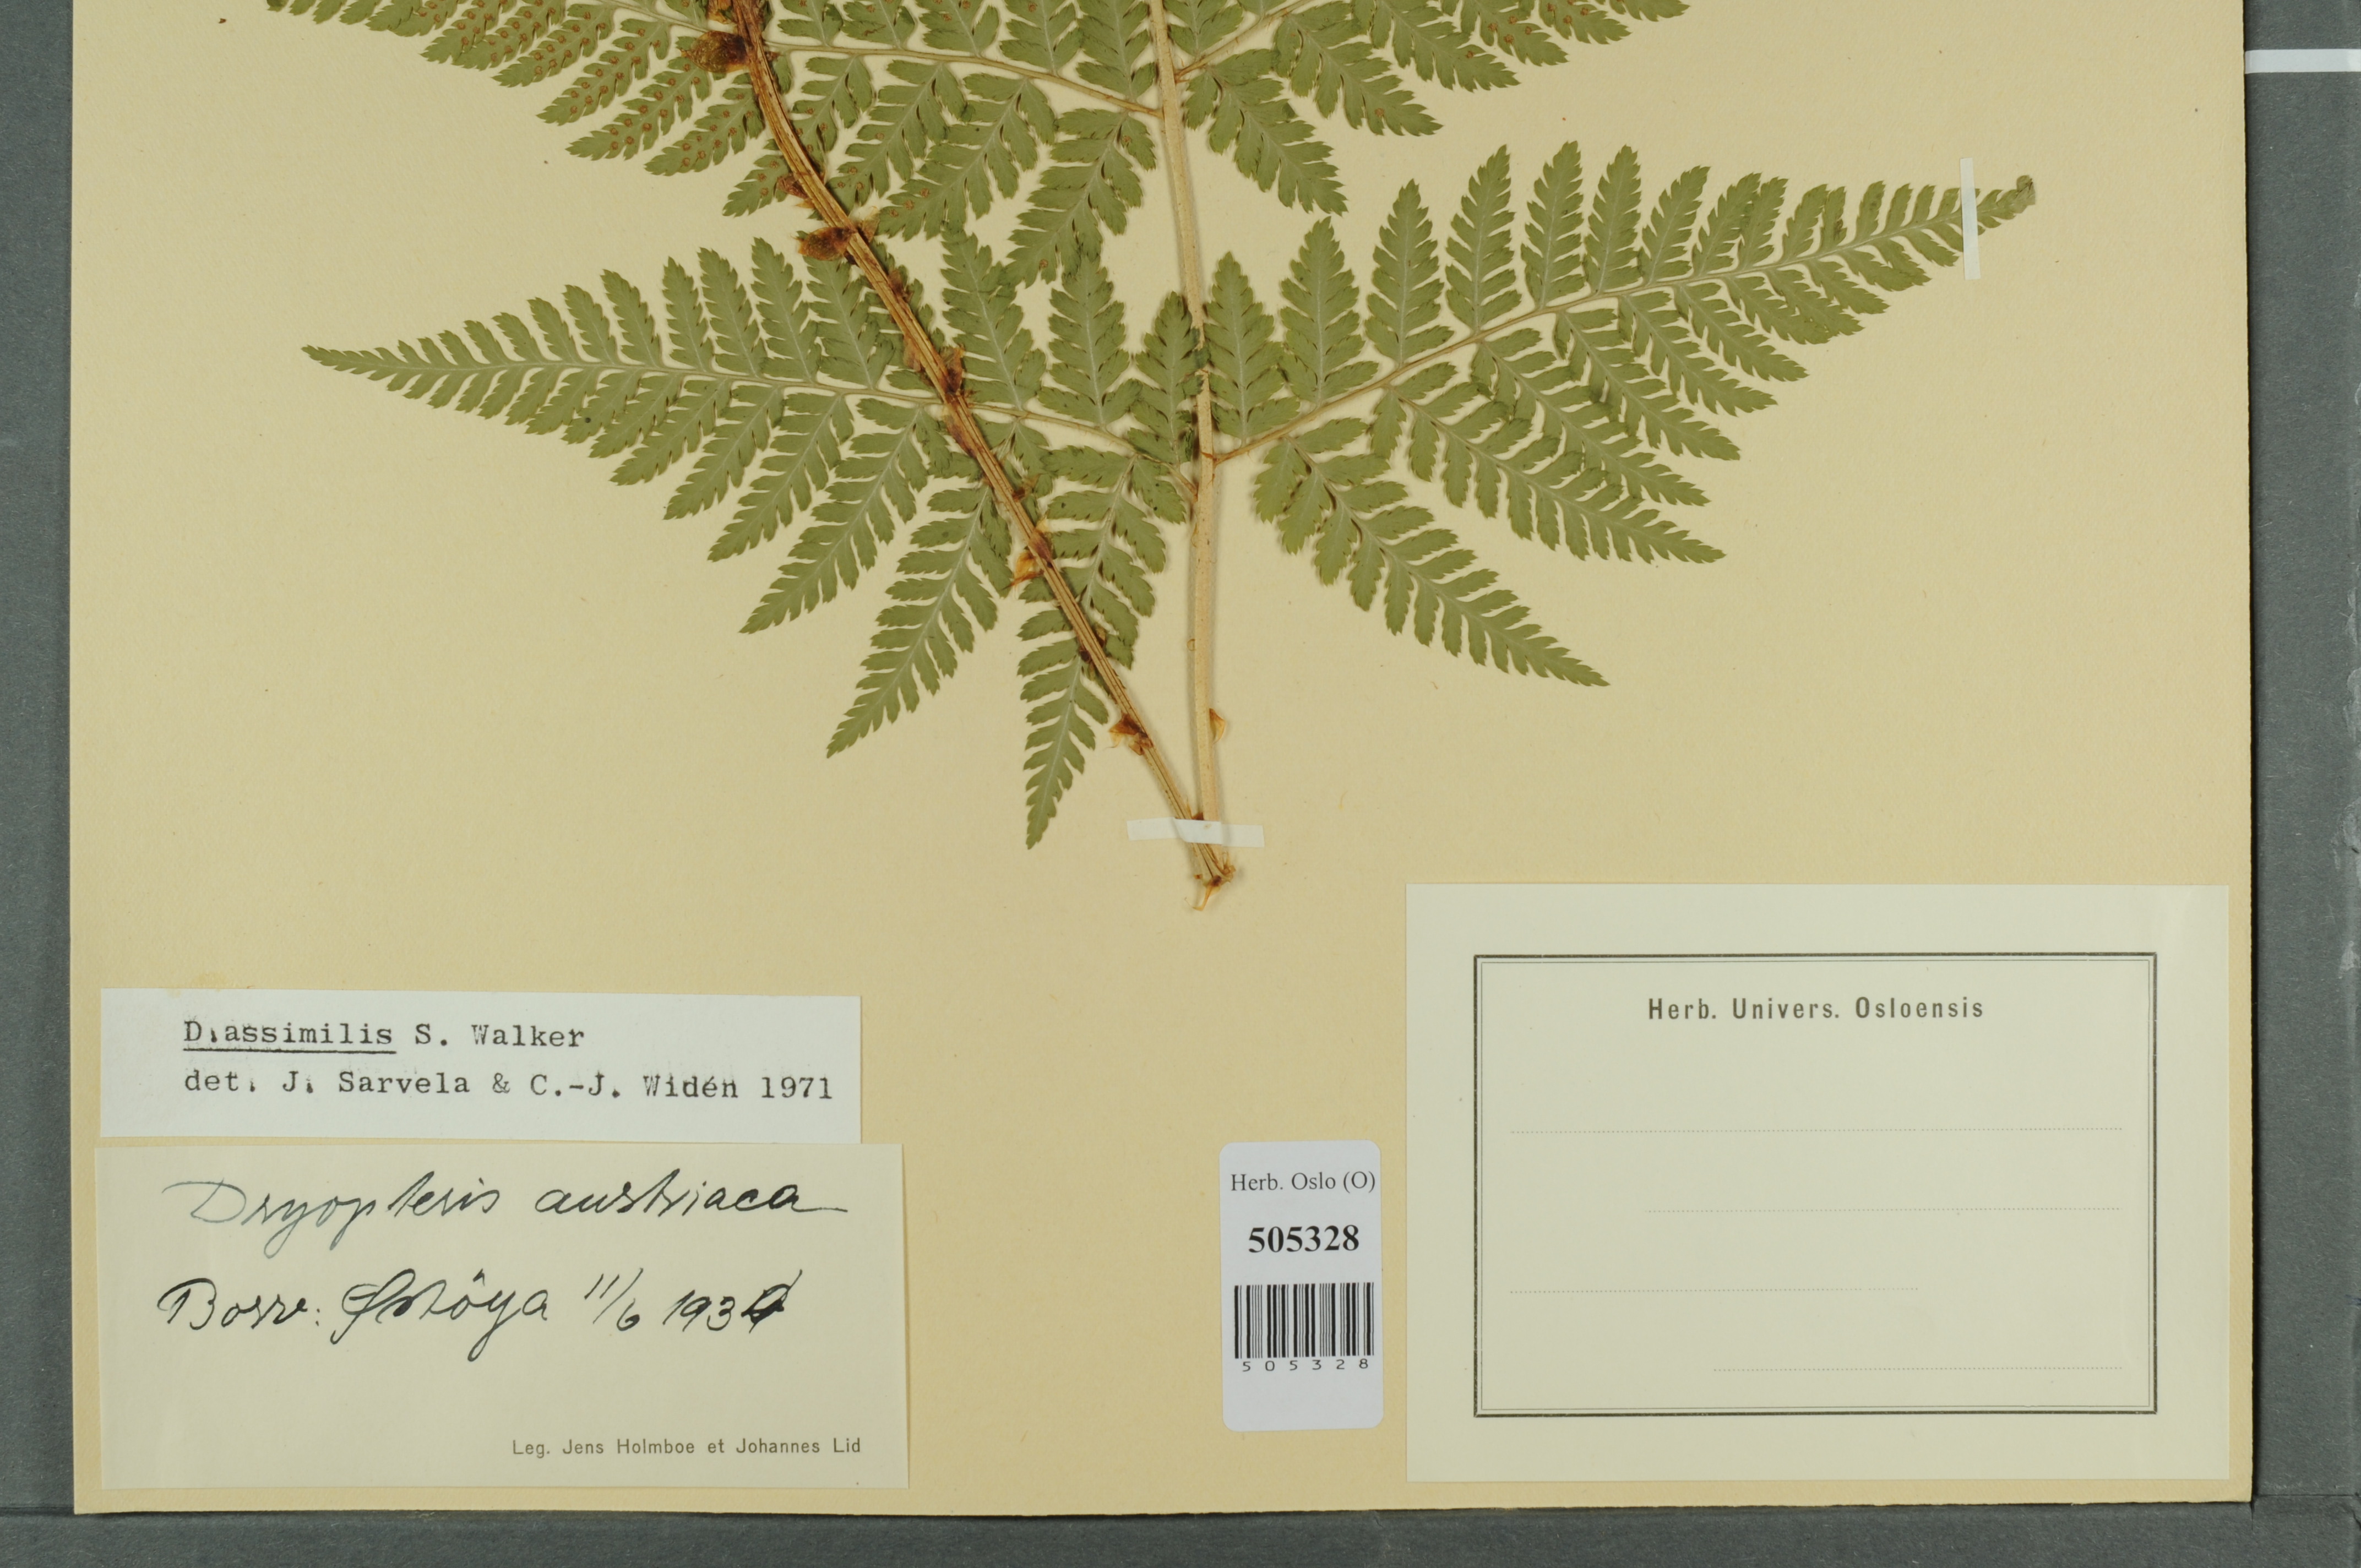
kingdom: Plantae
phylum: Tracheophyta
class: Polypodiopsida
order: Polypodiales
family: Dryopteridaceae
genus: Dryopteris
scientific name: Dryopteris expansa
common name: Northern buckler fern
